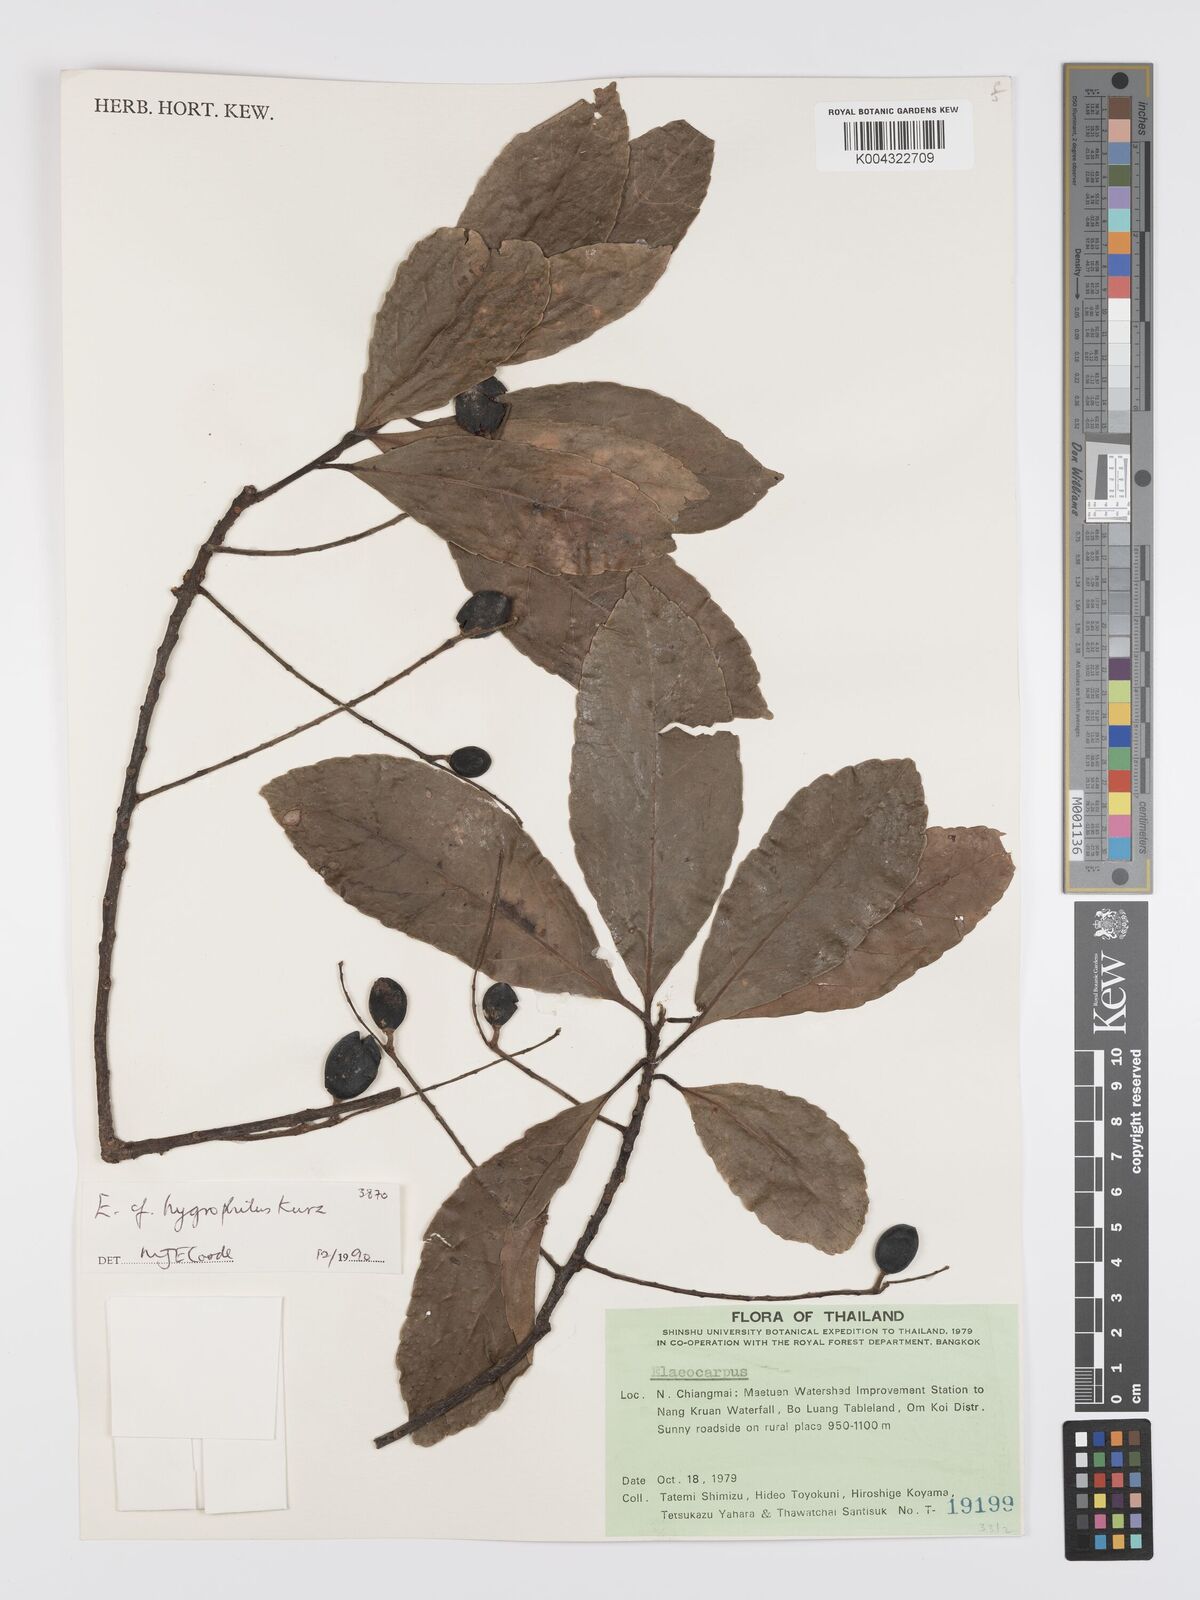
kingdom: Plantae
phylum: Tracheophyta
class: Magnoliopsida
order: Oxalidales
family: Elaeocarpaceae
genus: Elaeocarpus
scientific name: Elaeocarpus hygrophilus
